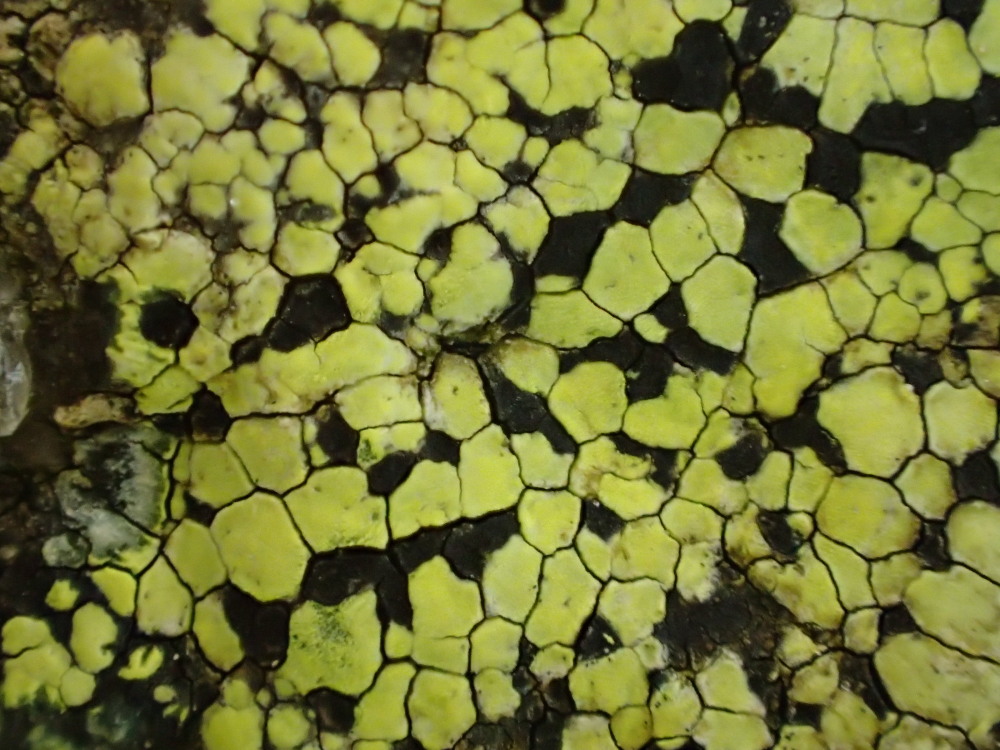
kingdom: Fungi
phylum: Ascomycota
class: Lecanoromycetes
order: Rhizocarpales
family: Rhizocarpaceae
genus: Rhizocarpon
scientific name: Rhizocarpon geographicum
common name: gulgrøn landkortlav
